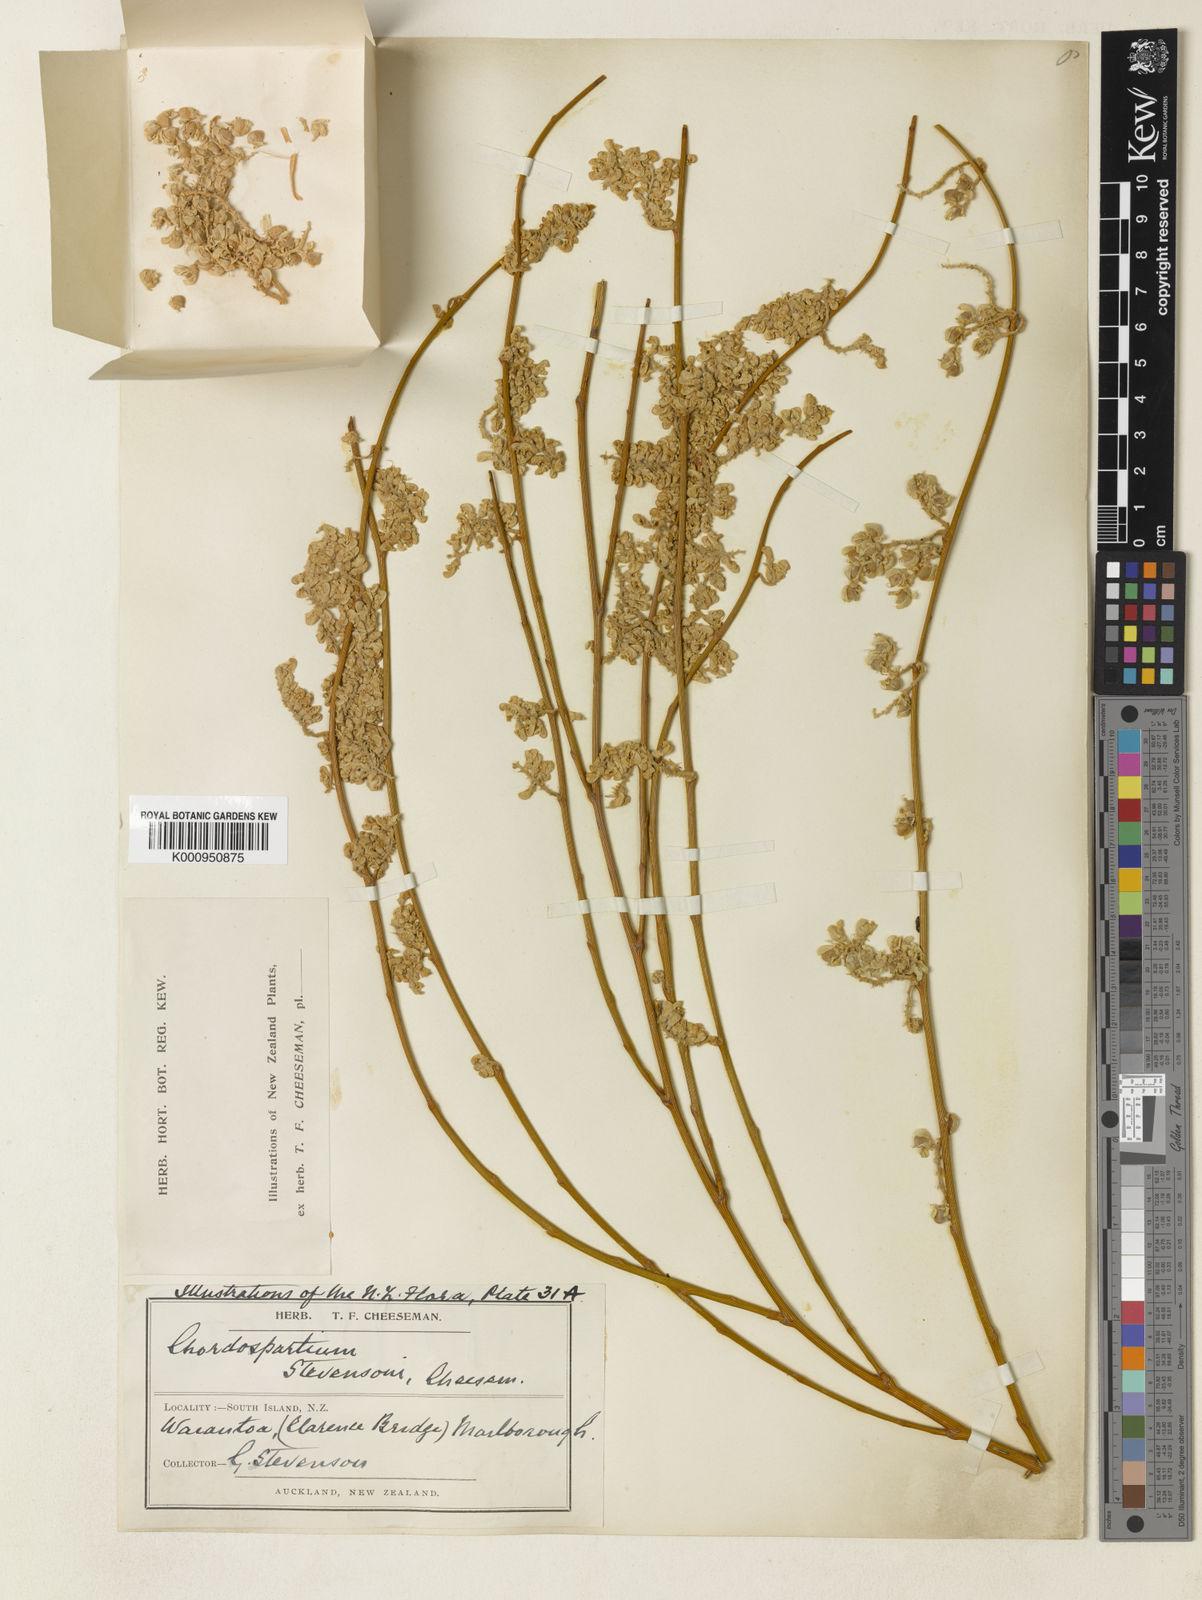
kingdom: Plantae
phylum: Tracheophyta
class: Magnoliopsida
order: Fabales
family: Fabaceae
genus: Carmichaelia
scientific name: Carmichaelia stevensonii
